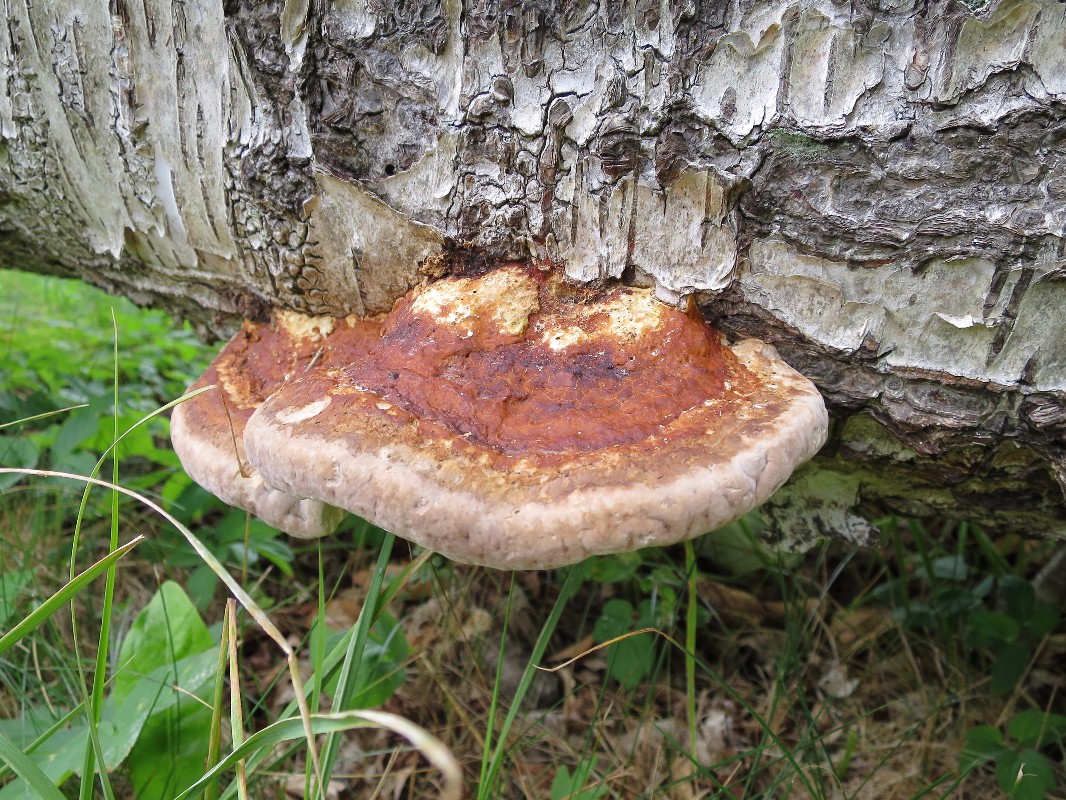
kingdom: Fungi
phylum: Basidiomycota
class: Agaricomycetes
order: Polyporales
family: Fomitopsidaceae
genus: Fomitopsis
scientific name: Fomitopsis pinicola
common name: randbæltet hovporesvamp
